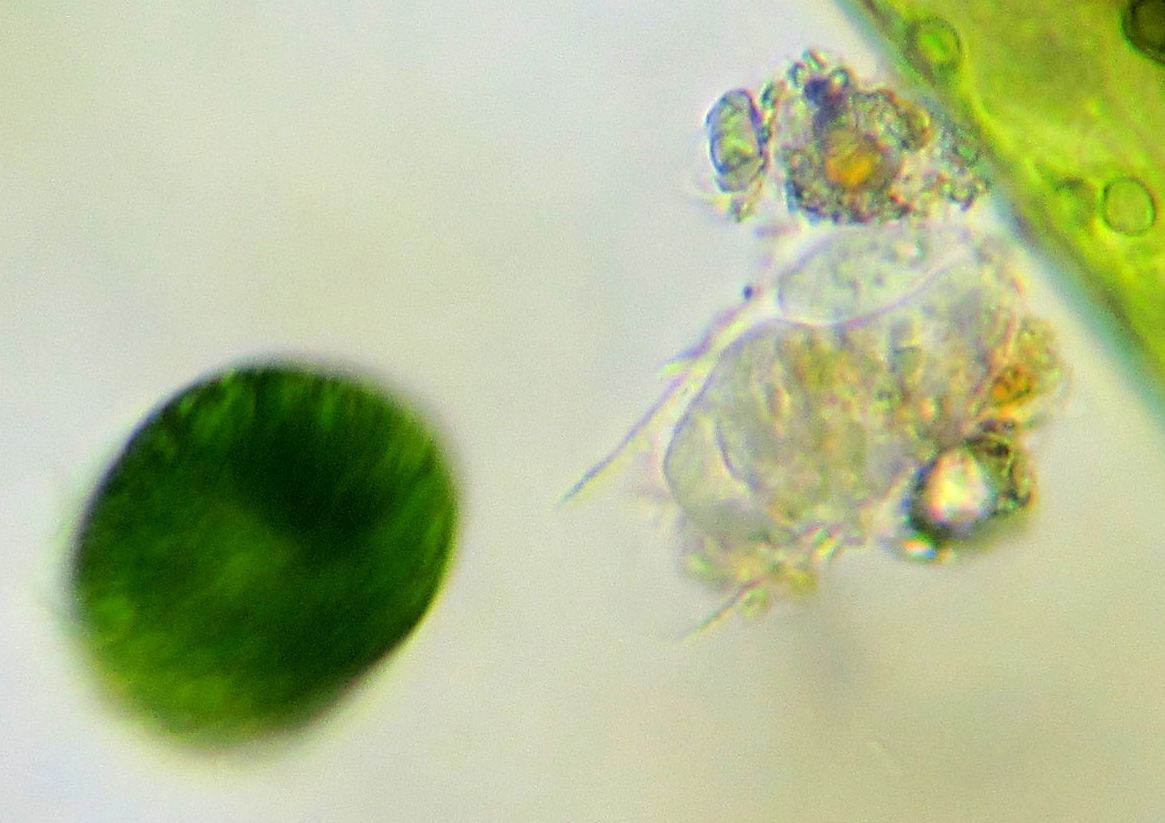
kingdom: Chromista
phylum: Ciliophora
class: Oligohymenophorea
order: Peritrichida
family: Vaginicolidae
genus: Cothurnia
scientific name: Cothurnia annulata
